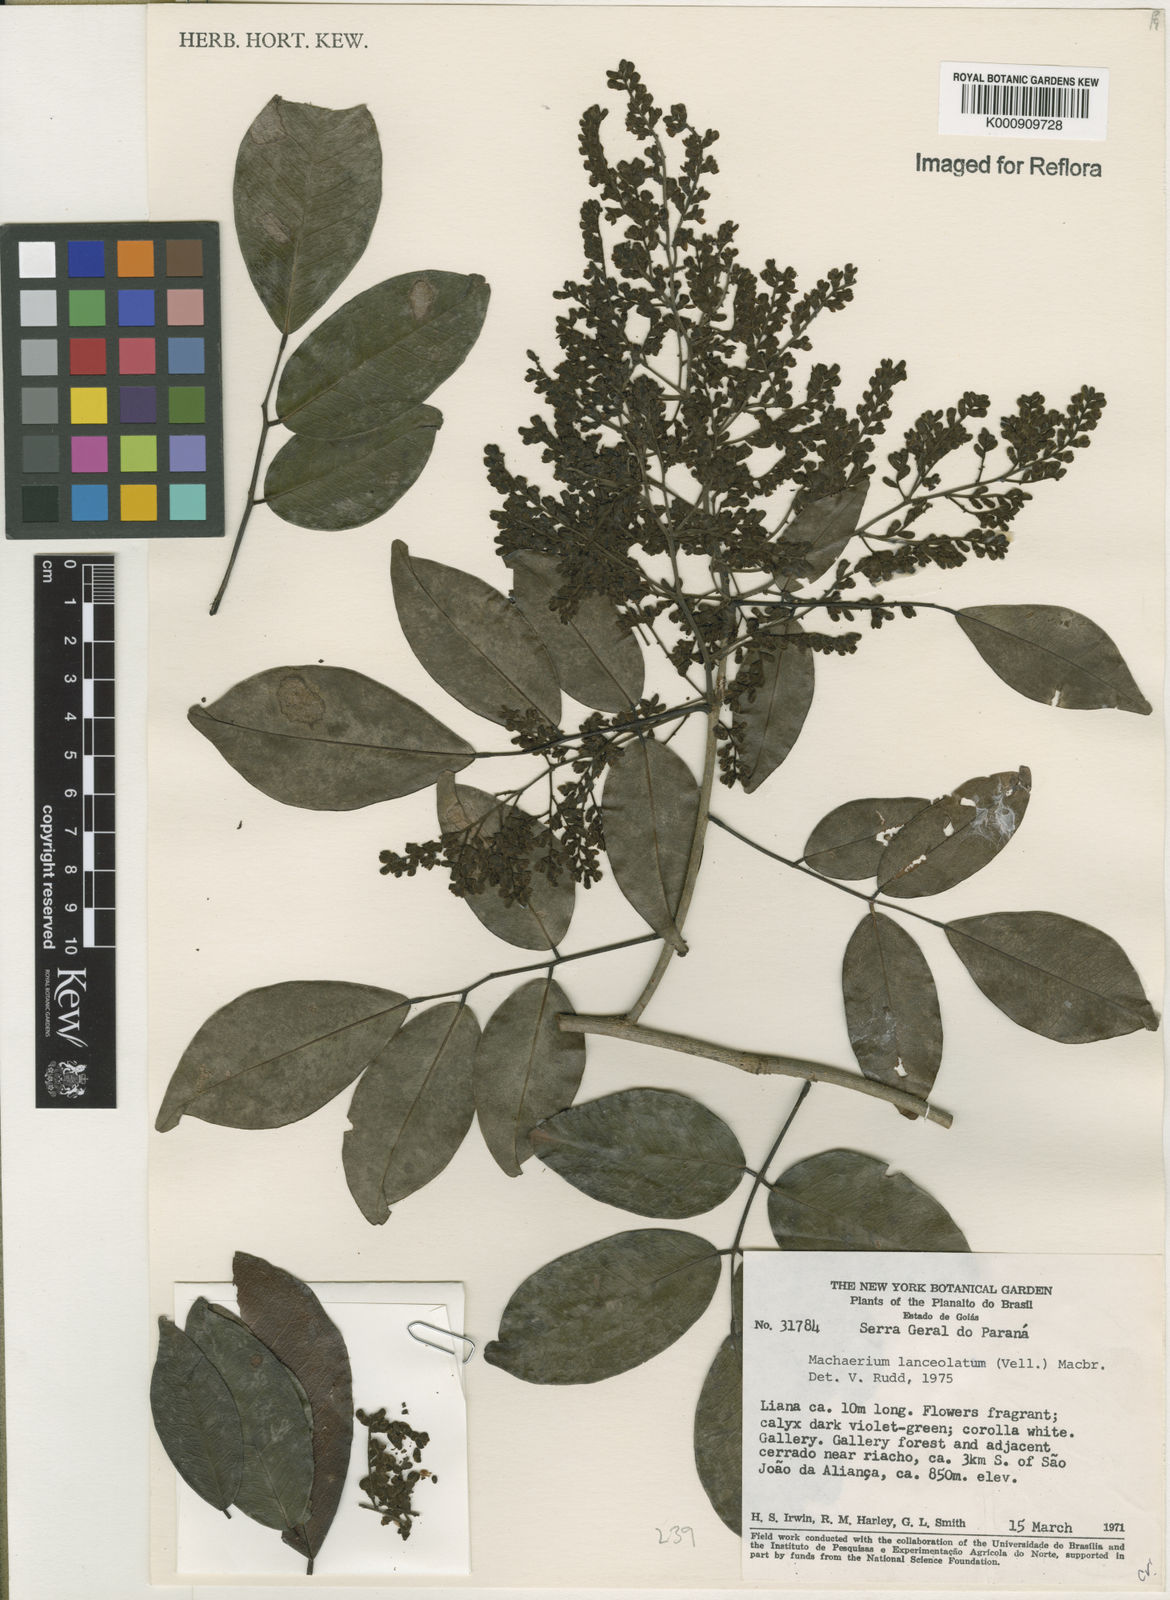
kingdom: Plantae
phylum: Tracheophyta
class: Magnoliopsida
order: Fabales
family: Fabaceae
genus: Machaerium
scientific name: Machaerium lanceolatum
